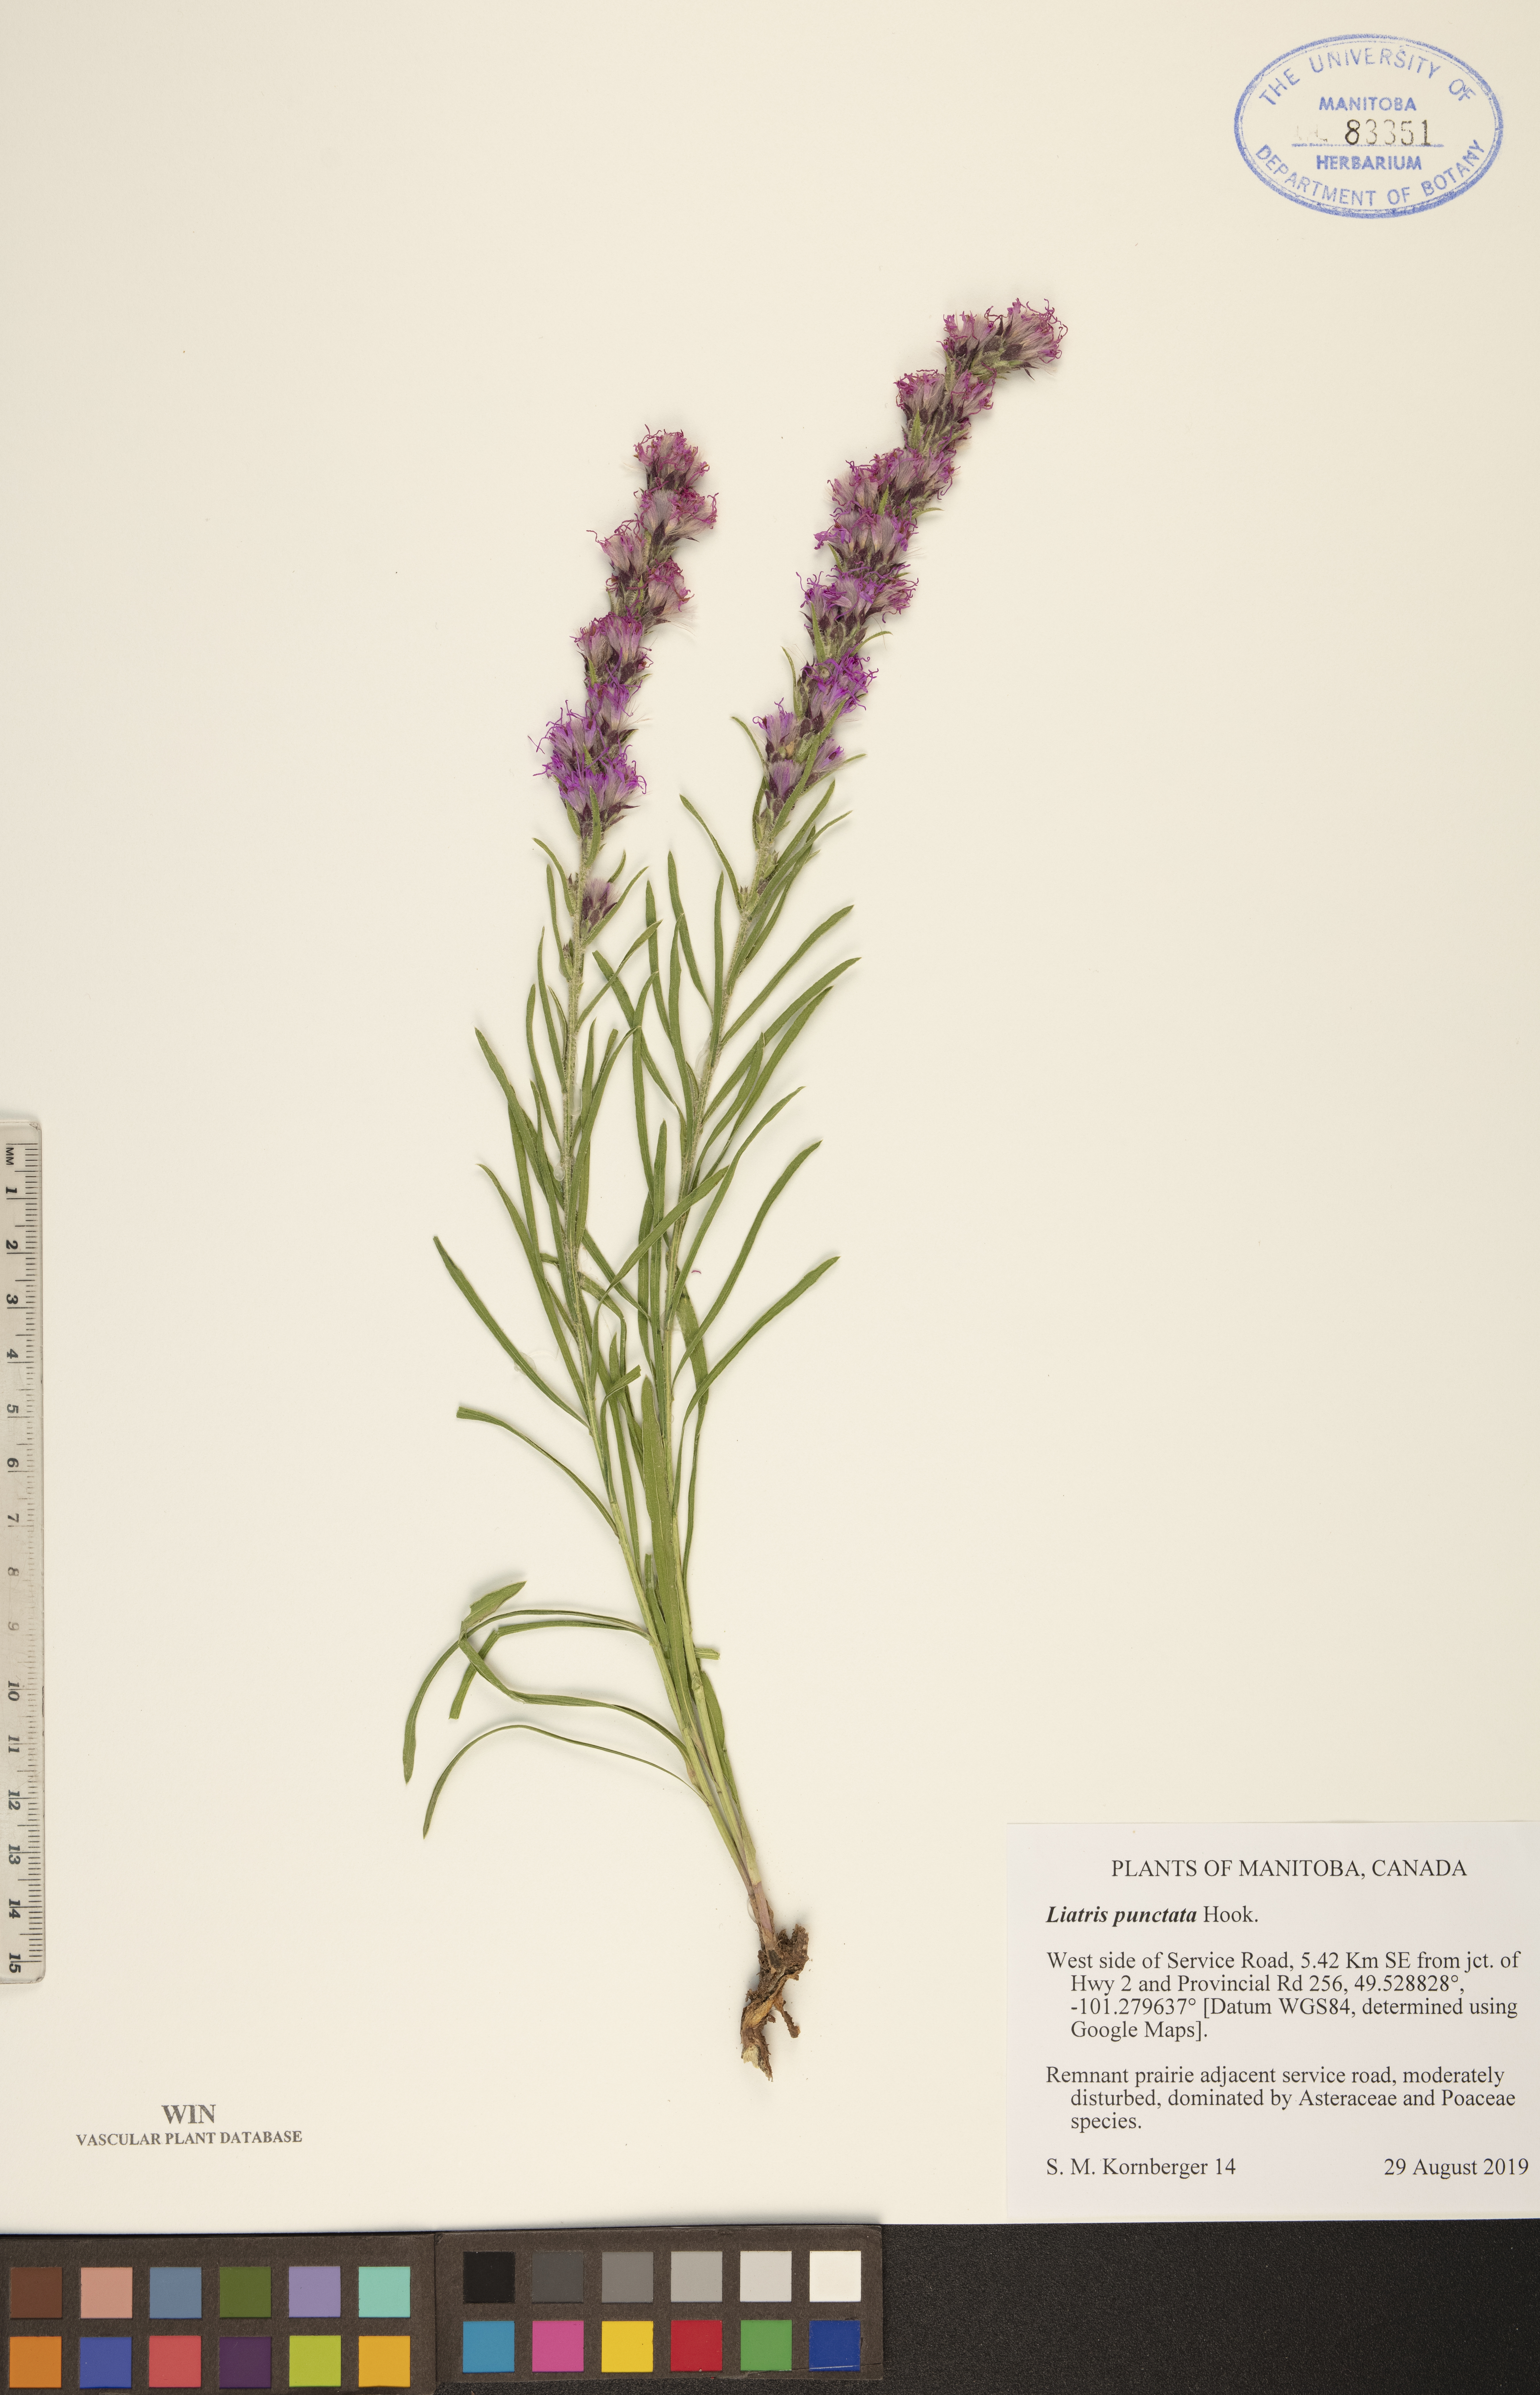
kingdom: Plantae
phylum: Tracheophyta
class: Magnoliopsida
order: Asterales
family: Asteraceae
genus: Liatris
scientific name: Liatris punctata
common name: Dotted gayfeather
